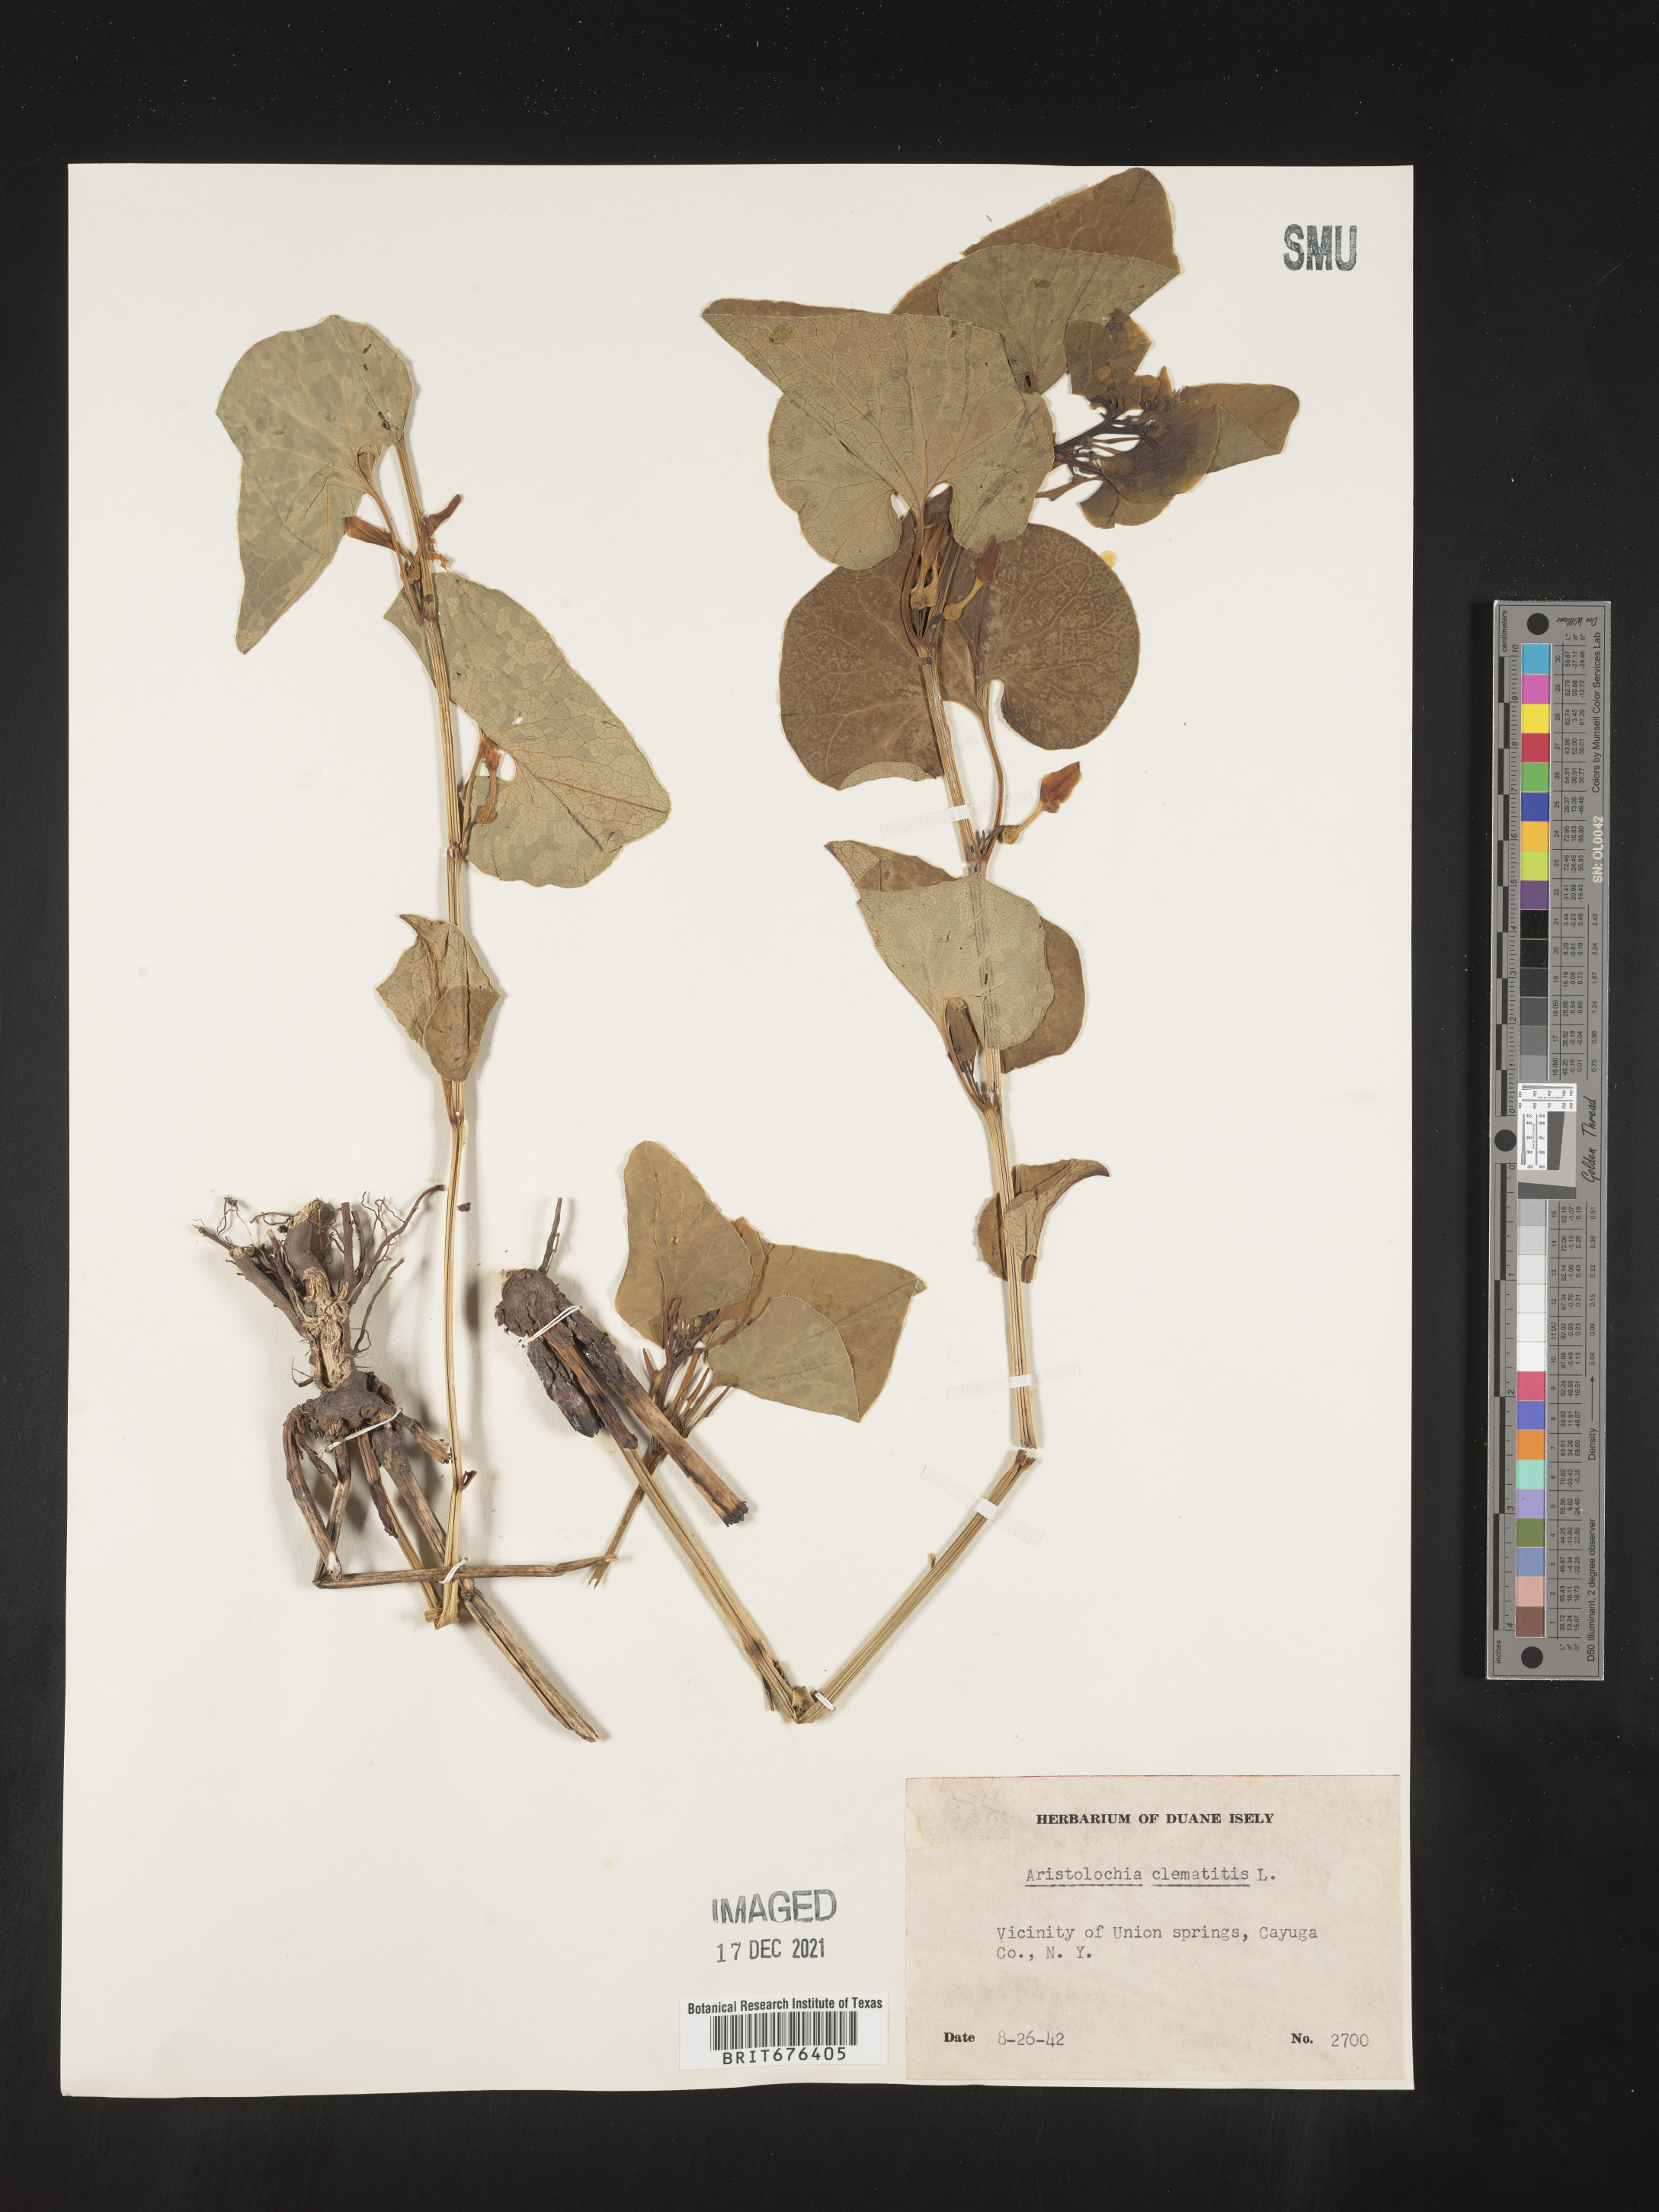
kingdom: Plantae
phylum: Tracheophyta
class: Magnoliopsida
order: Piperales
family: Aristolochiaceae
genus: Aristolochia
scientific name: Aristolochia
